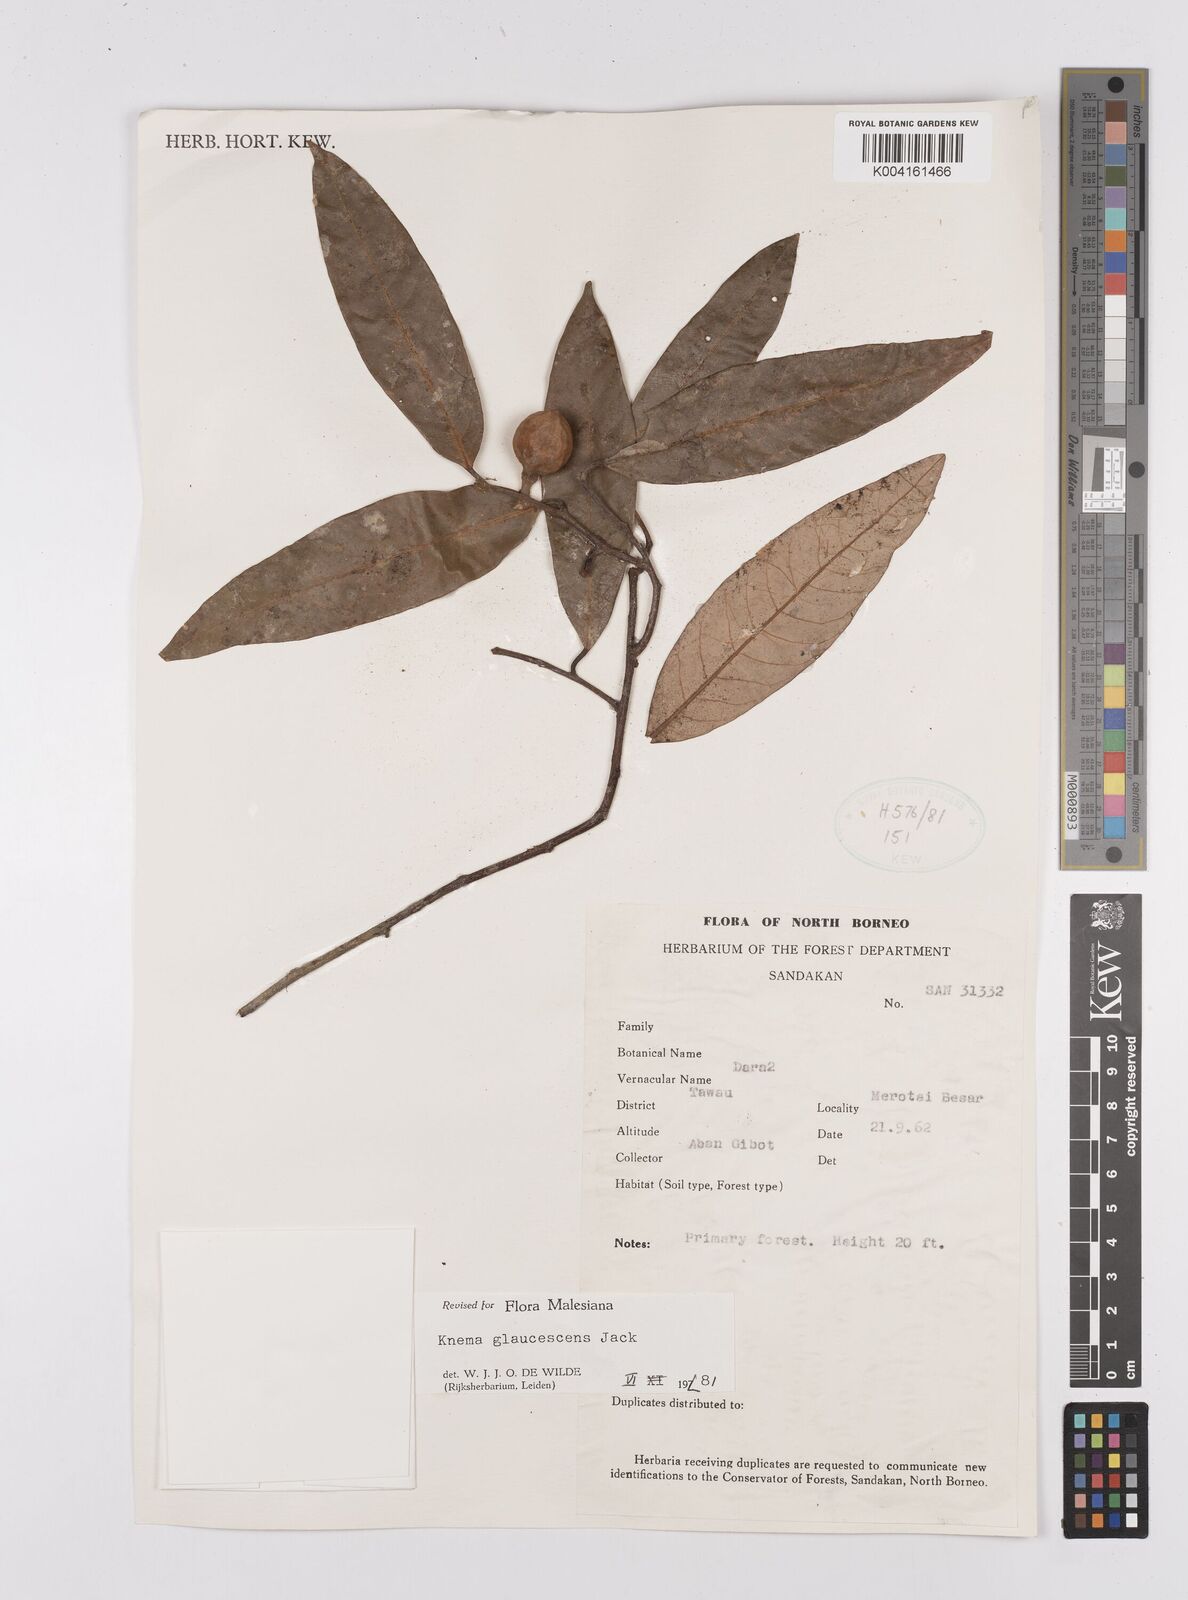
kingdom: Plantae
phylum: Tracheophyta
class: Magnoliopsida
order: Magnoliales
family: Myristicaceae
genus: Knema
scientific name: Knema
